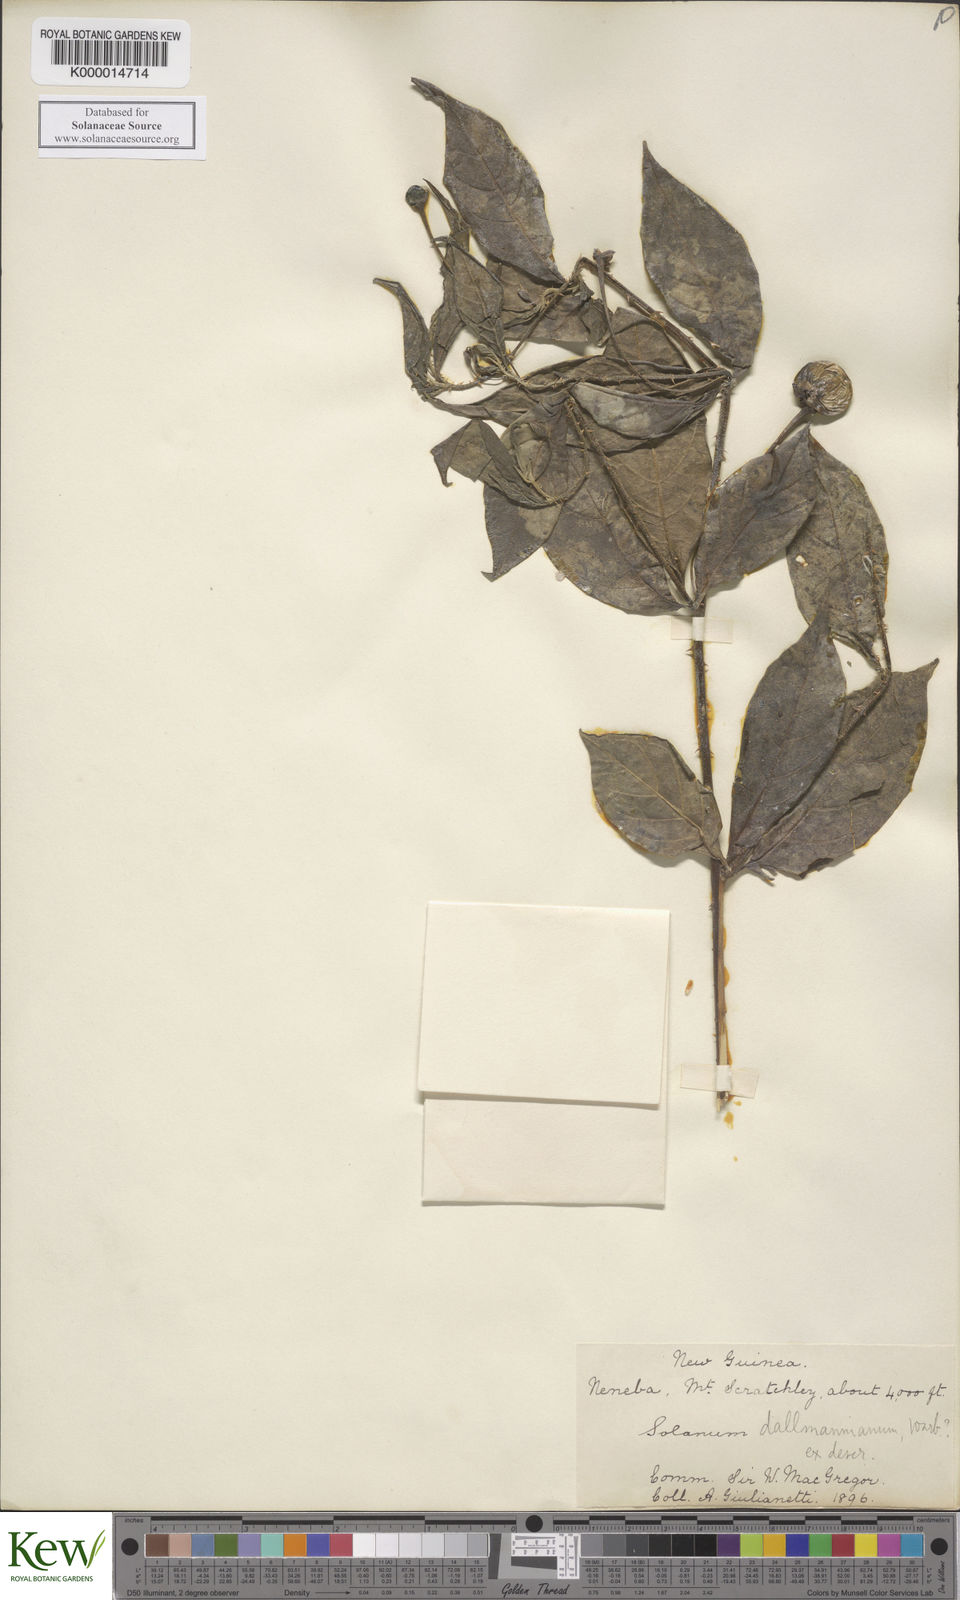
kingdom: Plantae
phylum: Tracheophyta
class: Magnoliopsida
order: Solanales
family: Solanaceae
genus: Solanum
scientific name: Solanum dallmannianum
